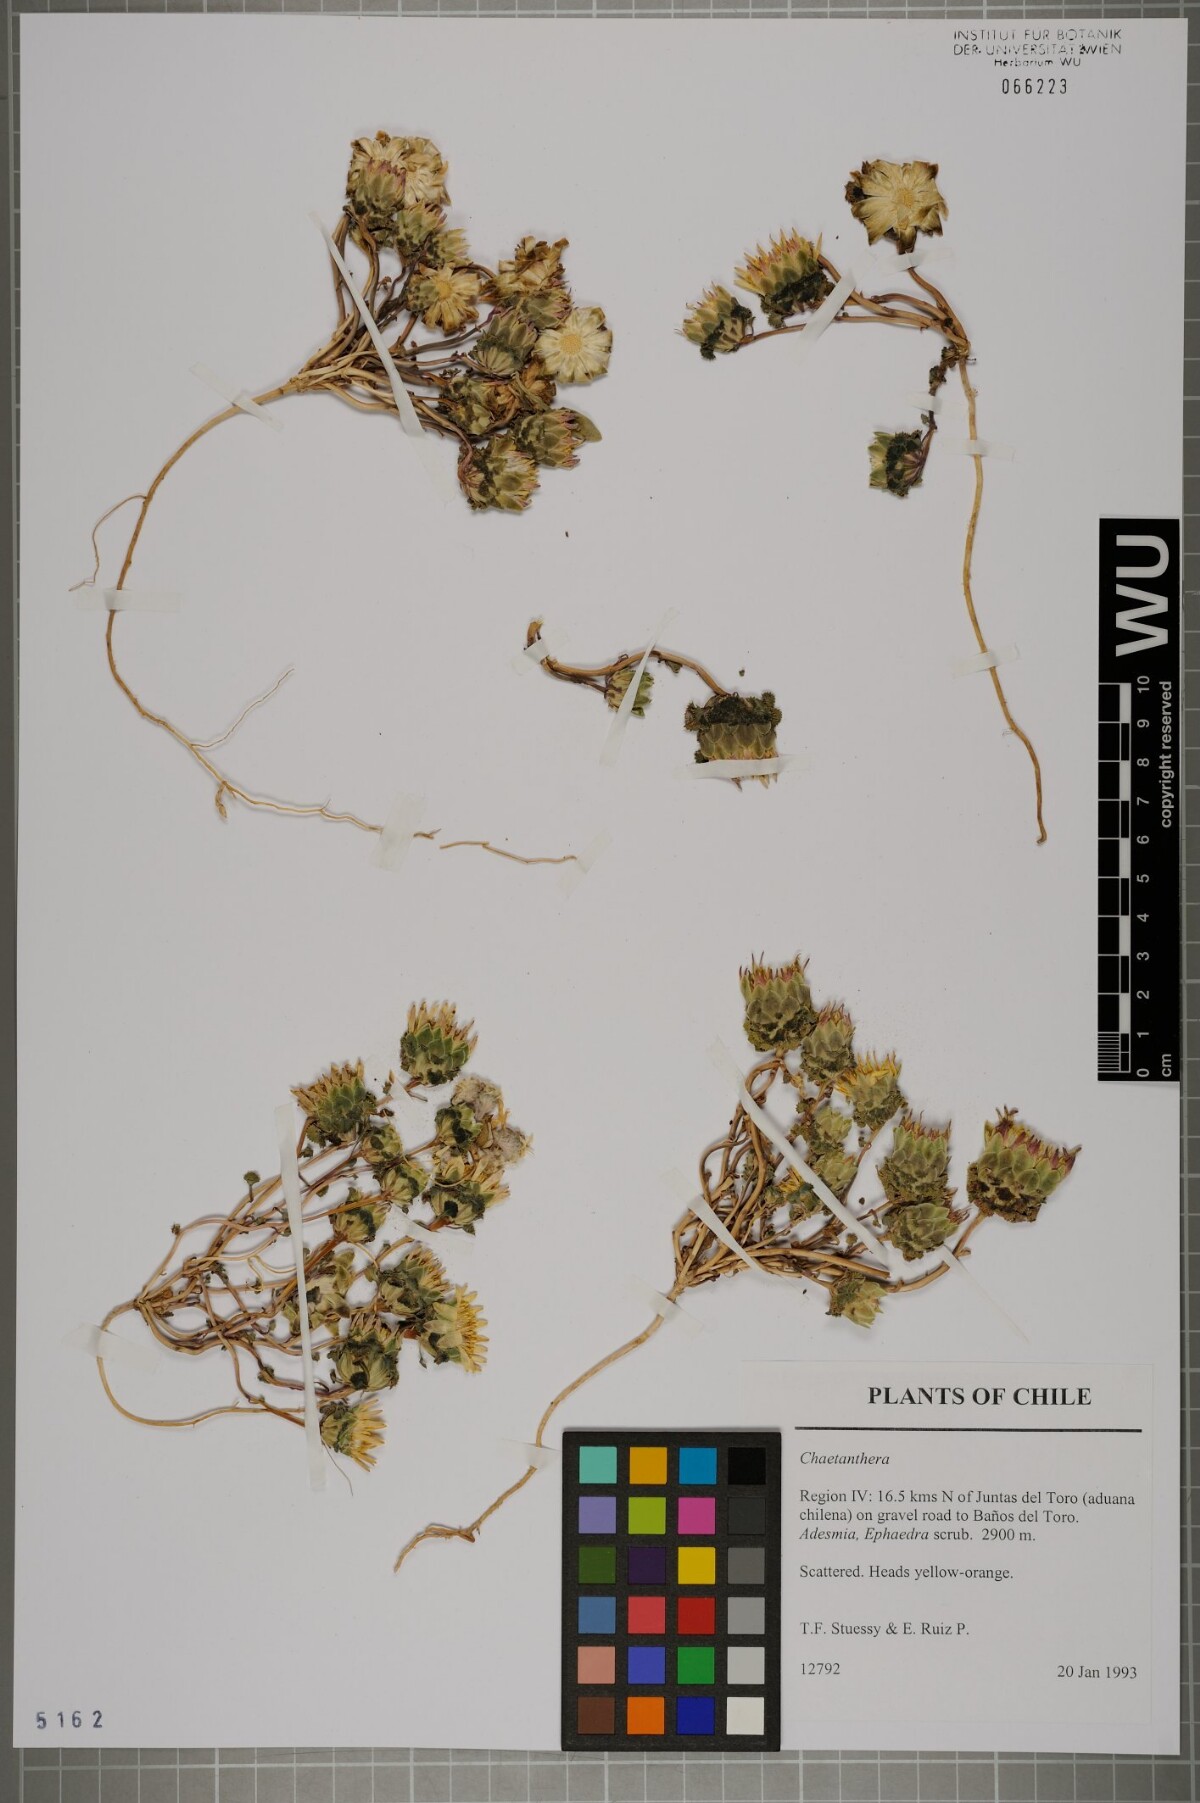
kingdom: Plantae
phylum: Tracheophyta
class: Magnoliopsida
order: Asterales
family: Asteraceae
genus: Chaetanthera
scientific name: Chaetanthera
